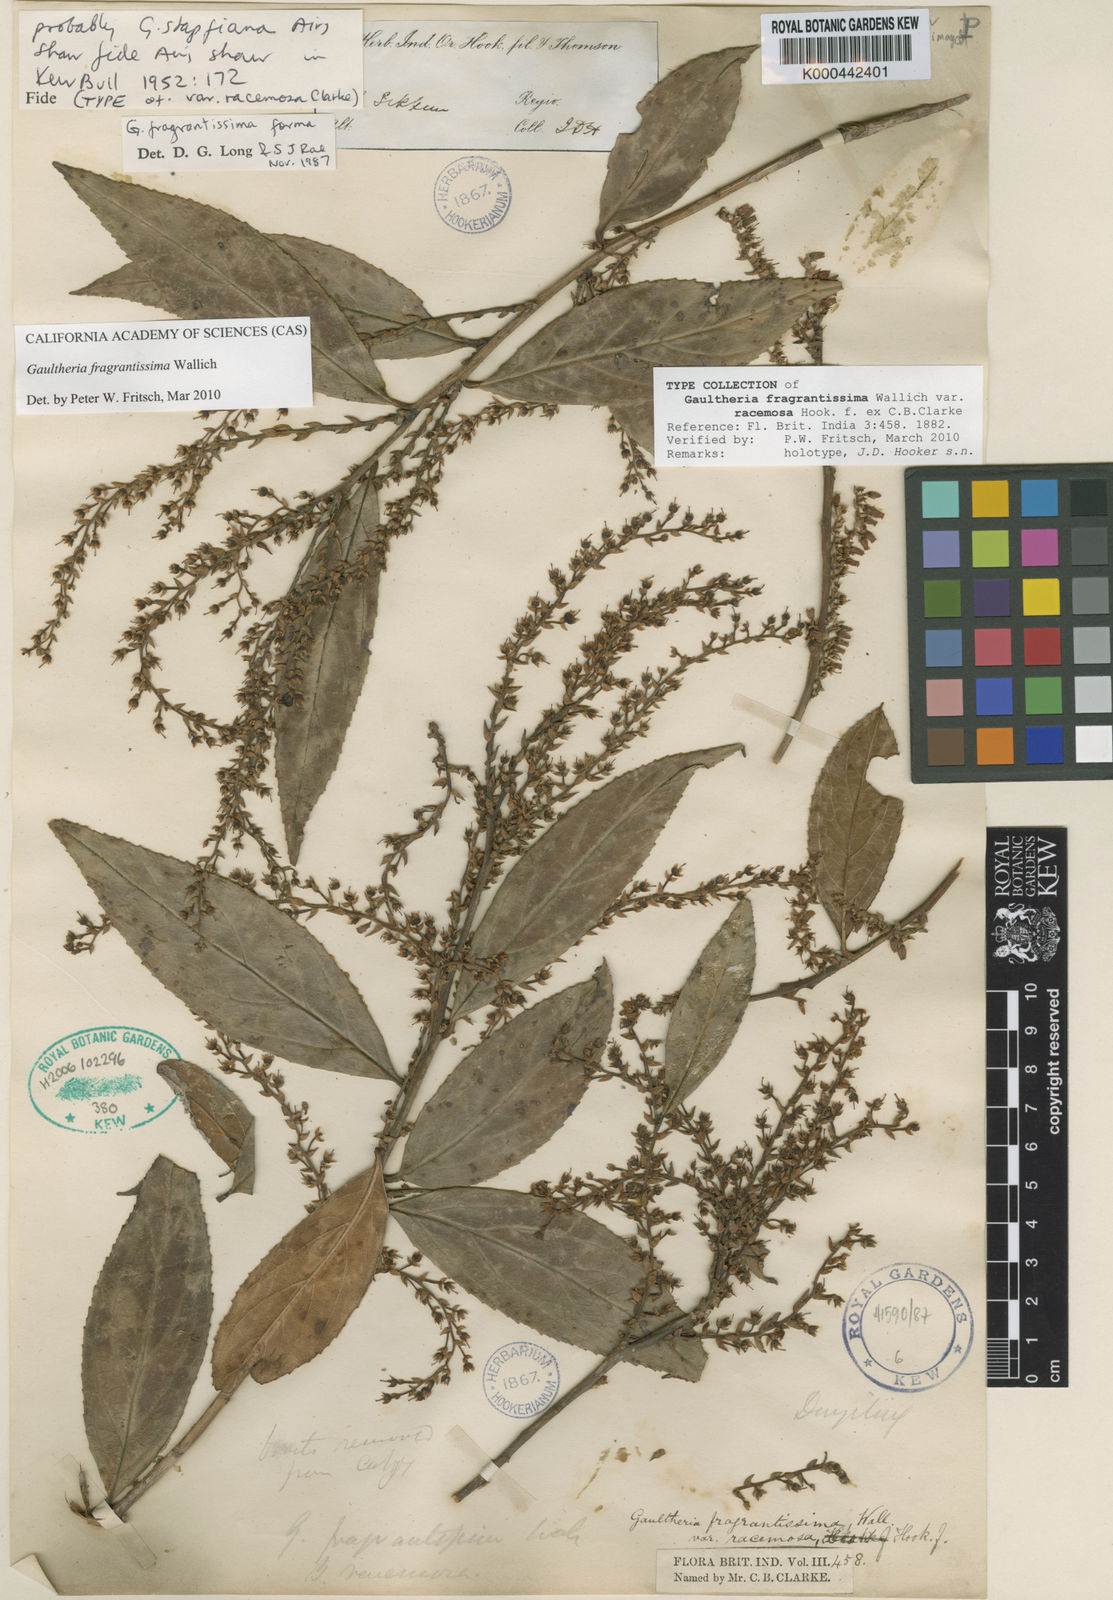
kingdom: Plantae
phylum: Tracheophyta
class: Magnoliopsida
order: Ericales
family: Ericaceae
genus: Gaultheria
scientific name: Gaultheria fragrantissima
